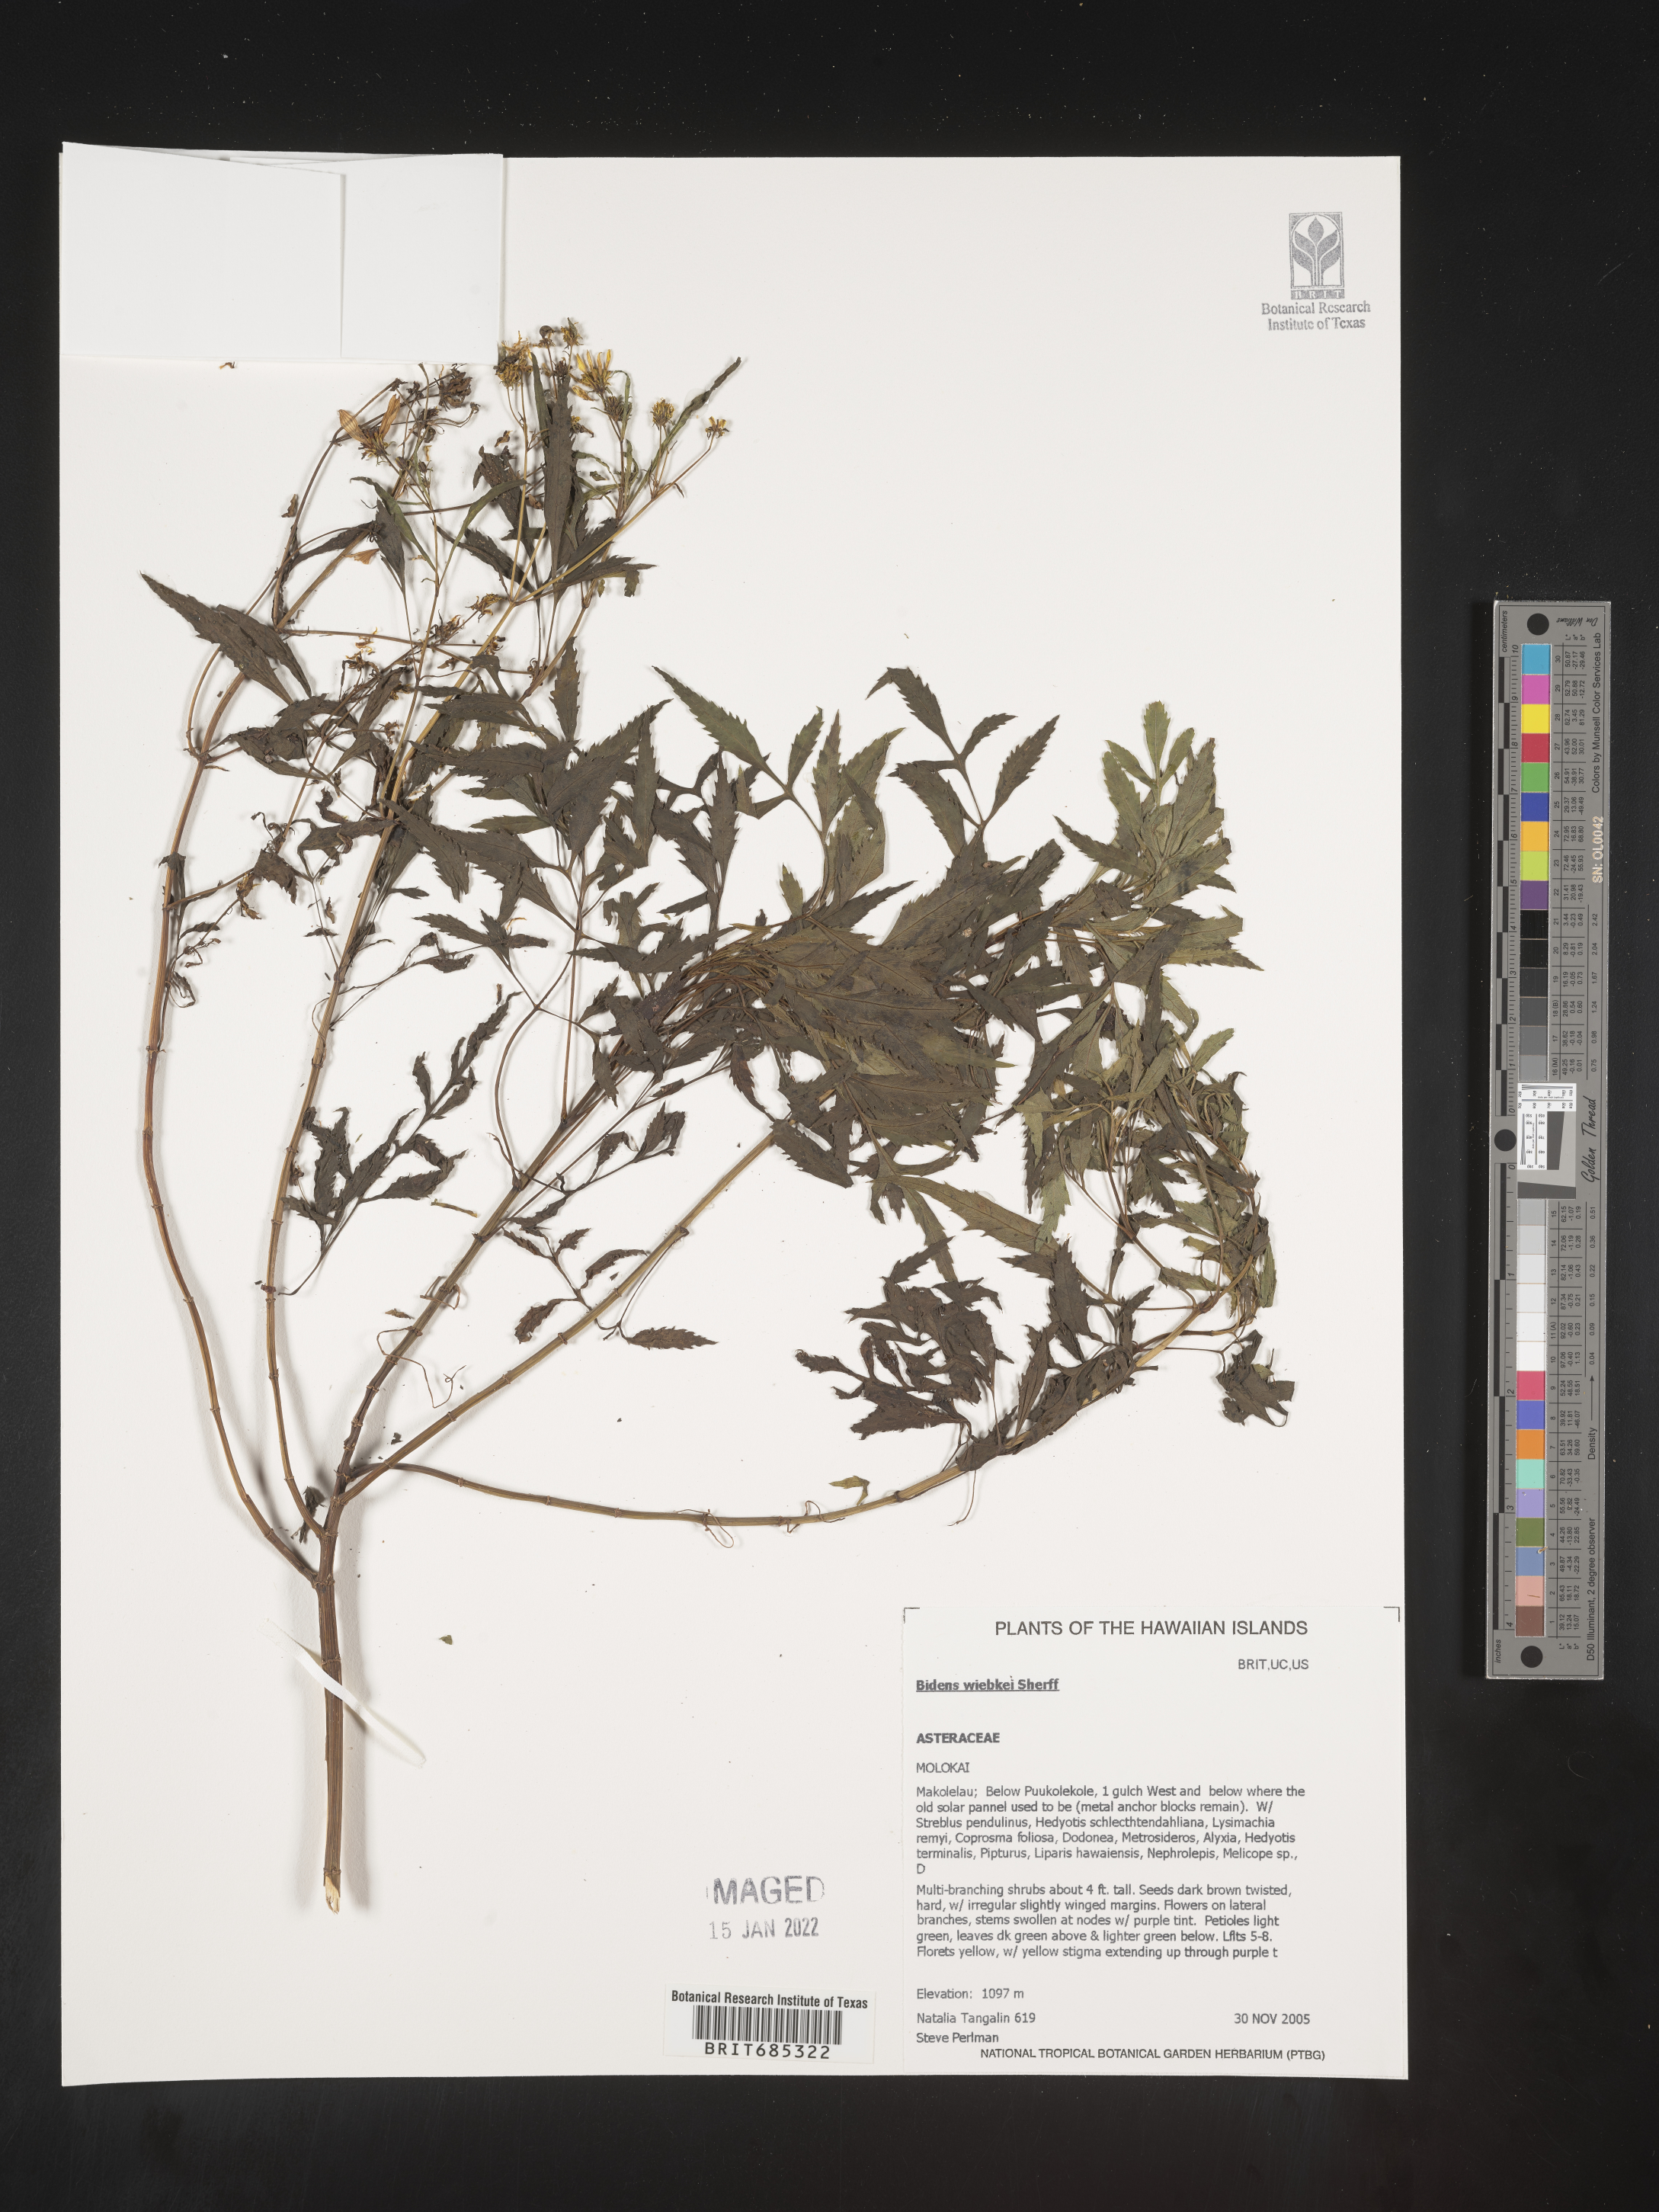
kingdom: Plantae
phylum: Tracheophyta
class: Magnoliopsida
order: Asterales
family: Asteraceae
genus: Bidens
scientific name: Bidens
